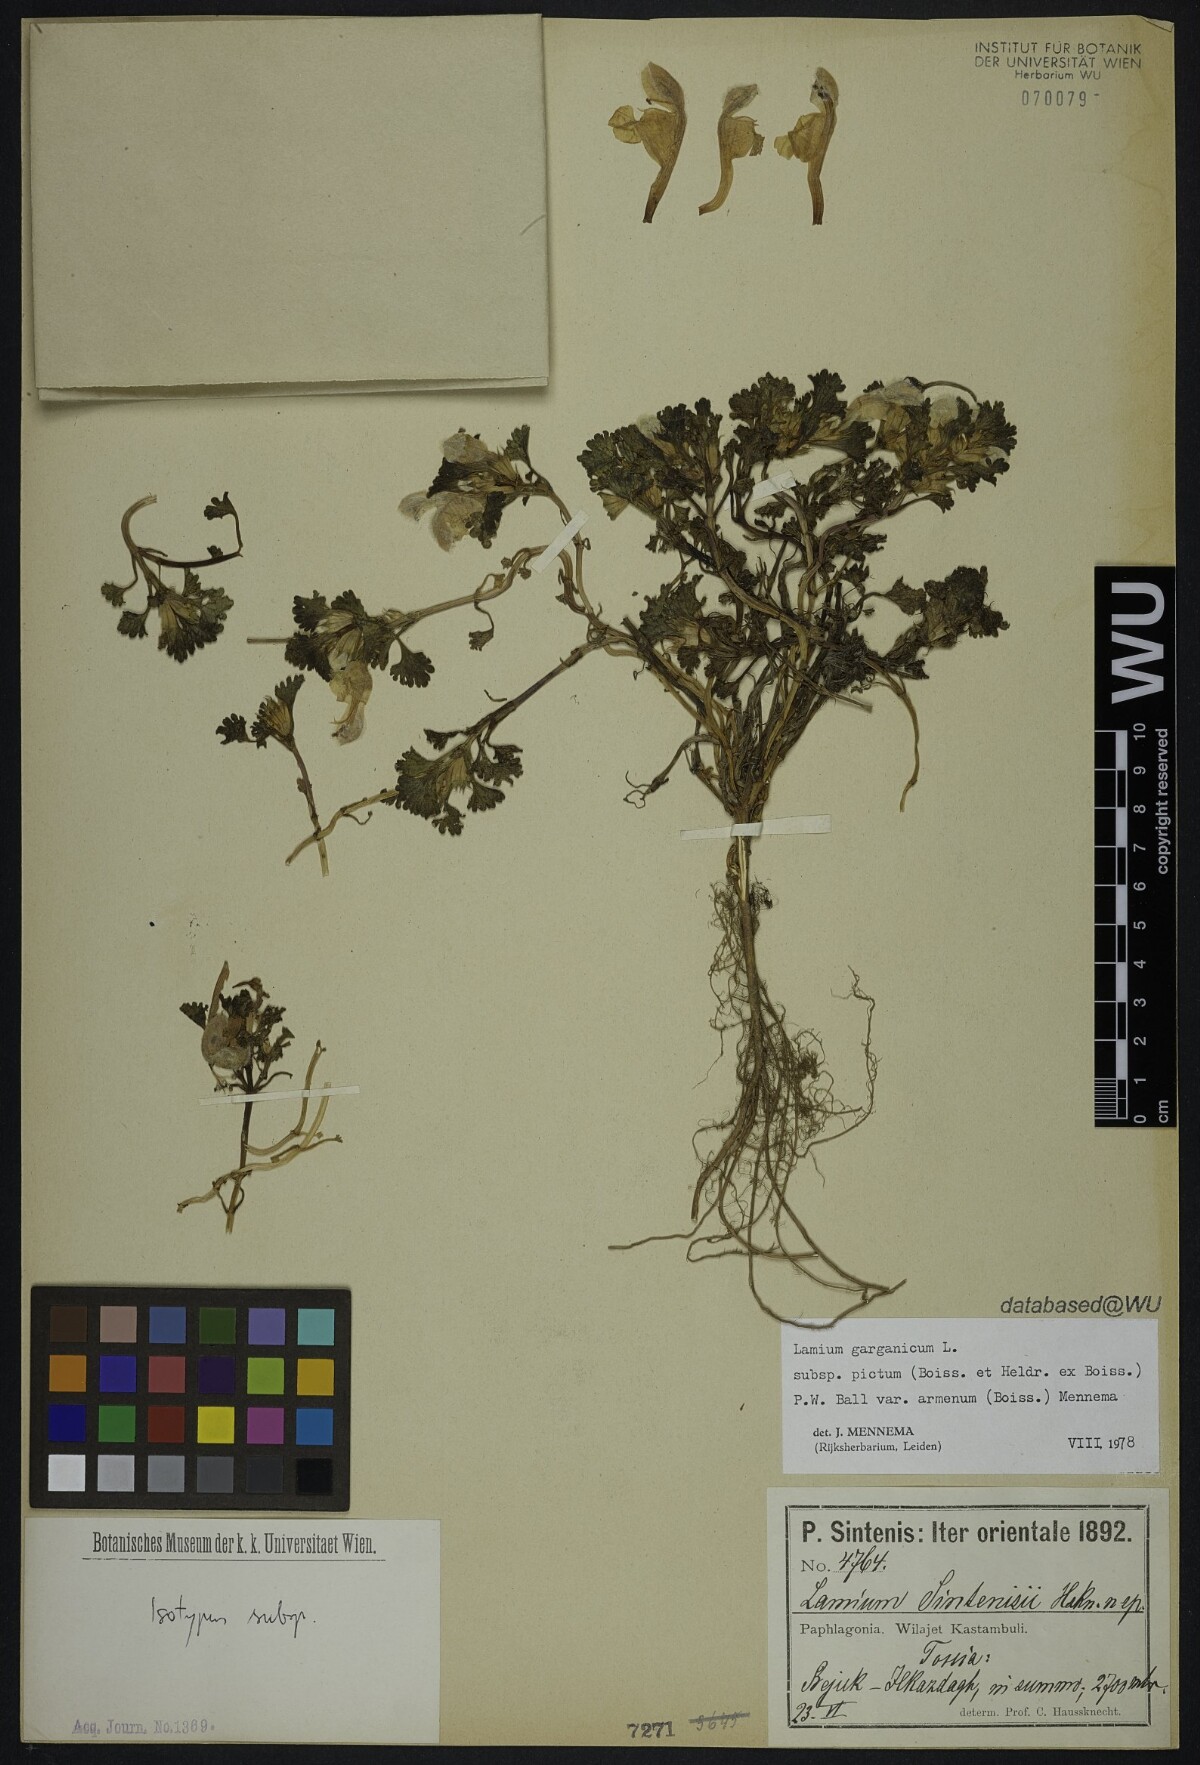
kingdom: Plantae
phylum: Tracheophyta
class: Magnoliopsida
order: Lamiales
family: Lamiaceae
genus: Lamium
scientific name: Lamium garganicum
